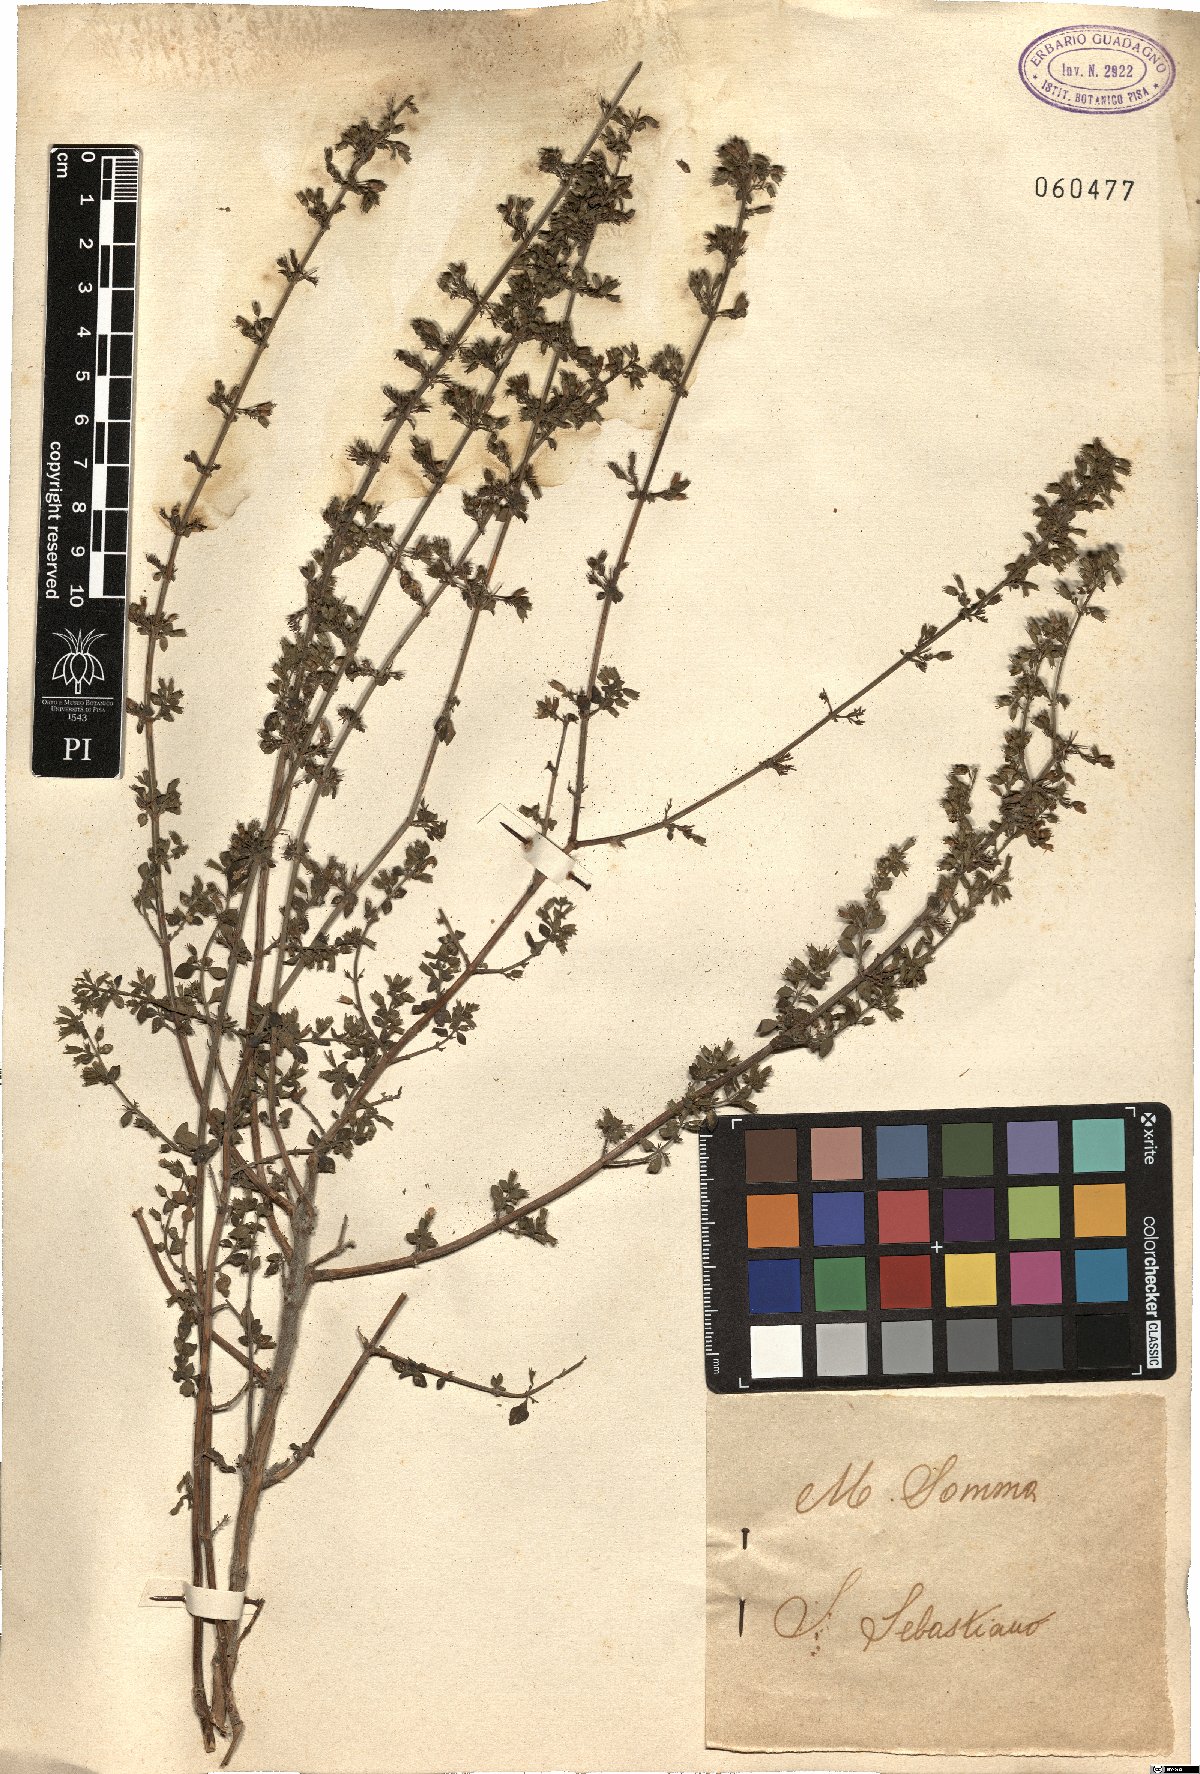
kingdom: Plantae
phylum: Tracheophyta
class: Magnoliopsida
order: Lamiales
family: Lamiaceae
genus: Clinopodium
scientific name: Clinopodium nepeta
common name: Lesser calamint
